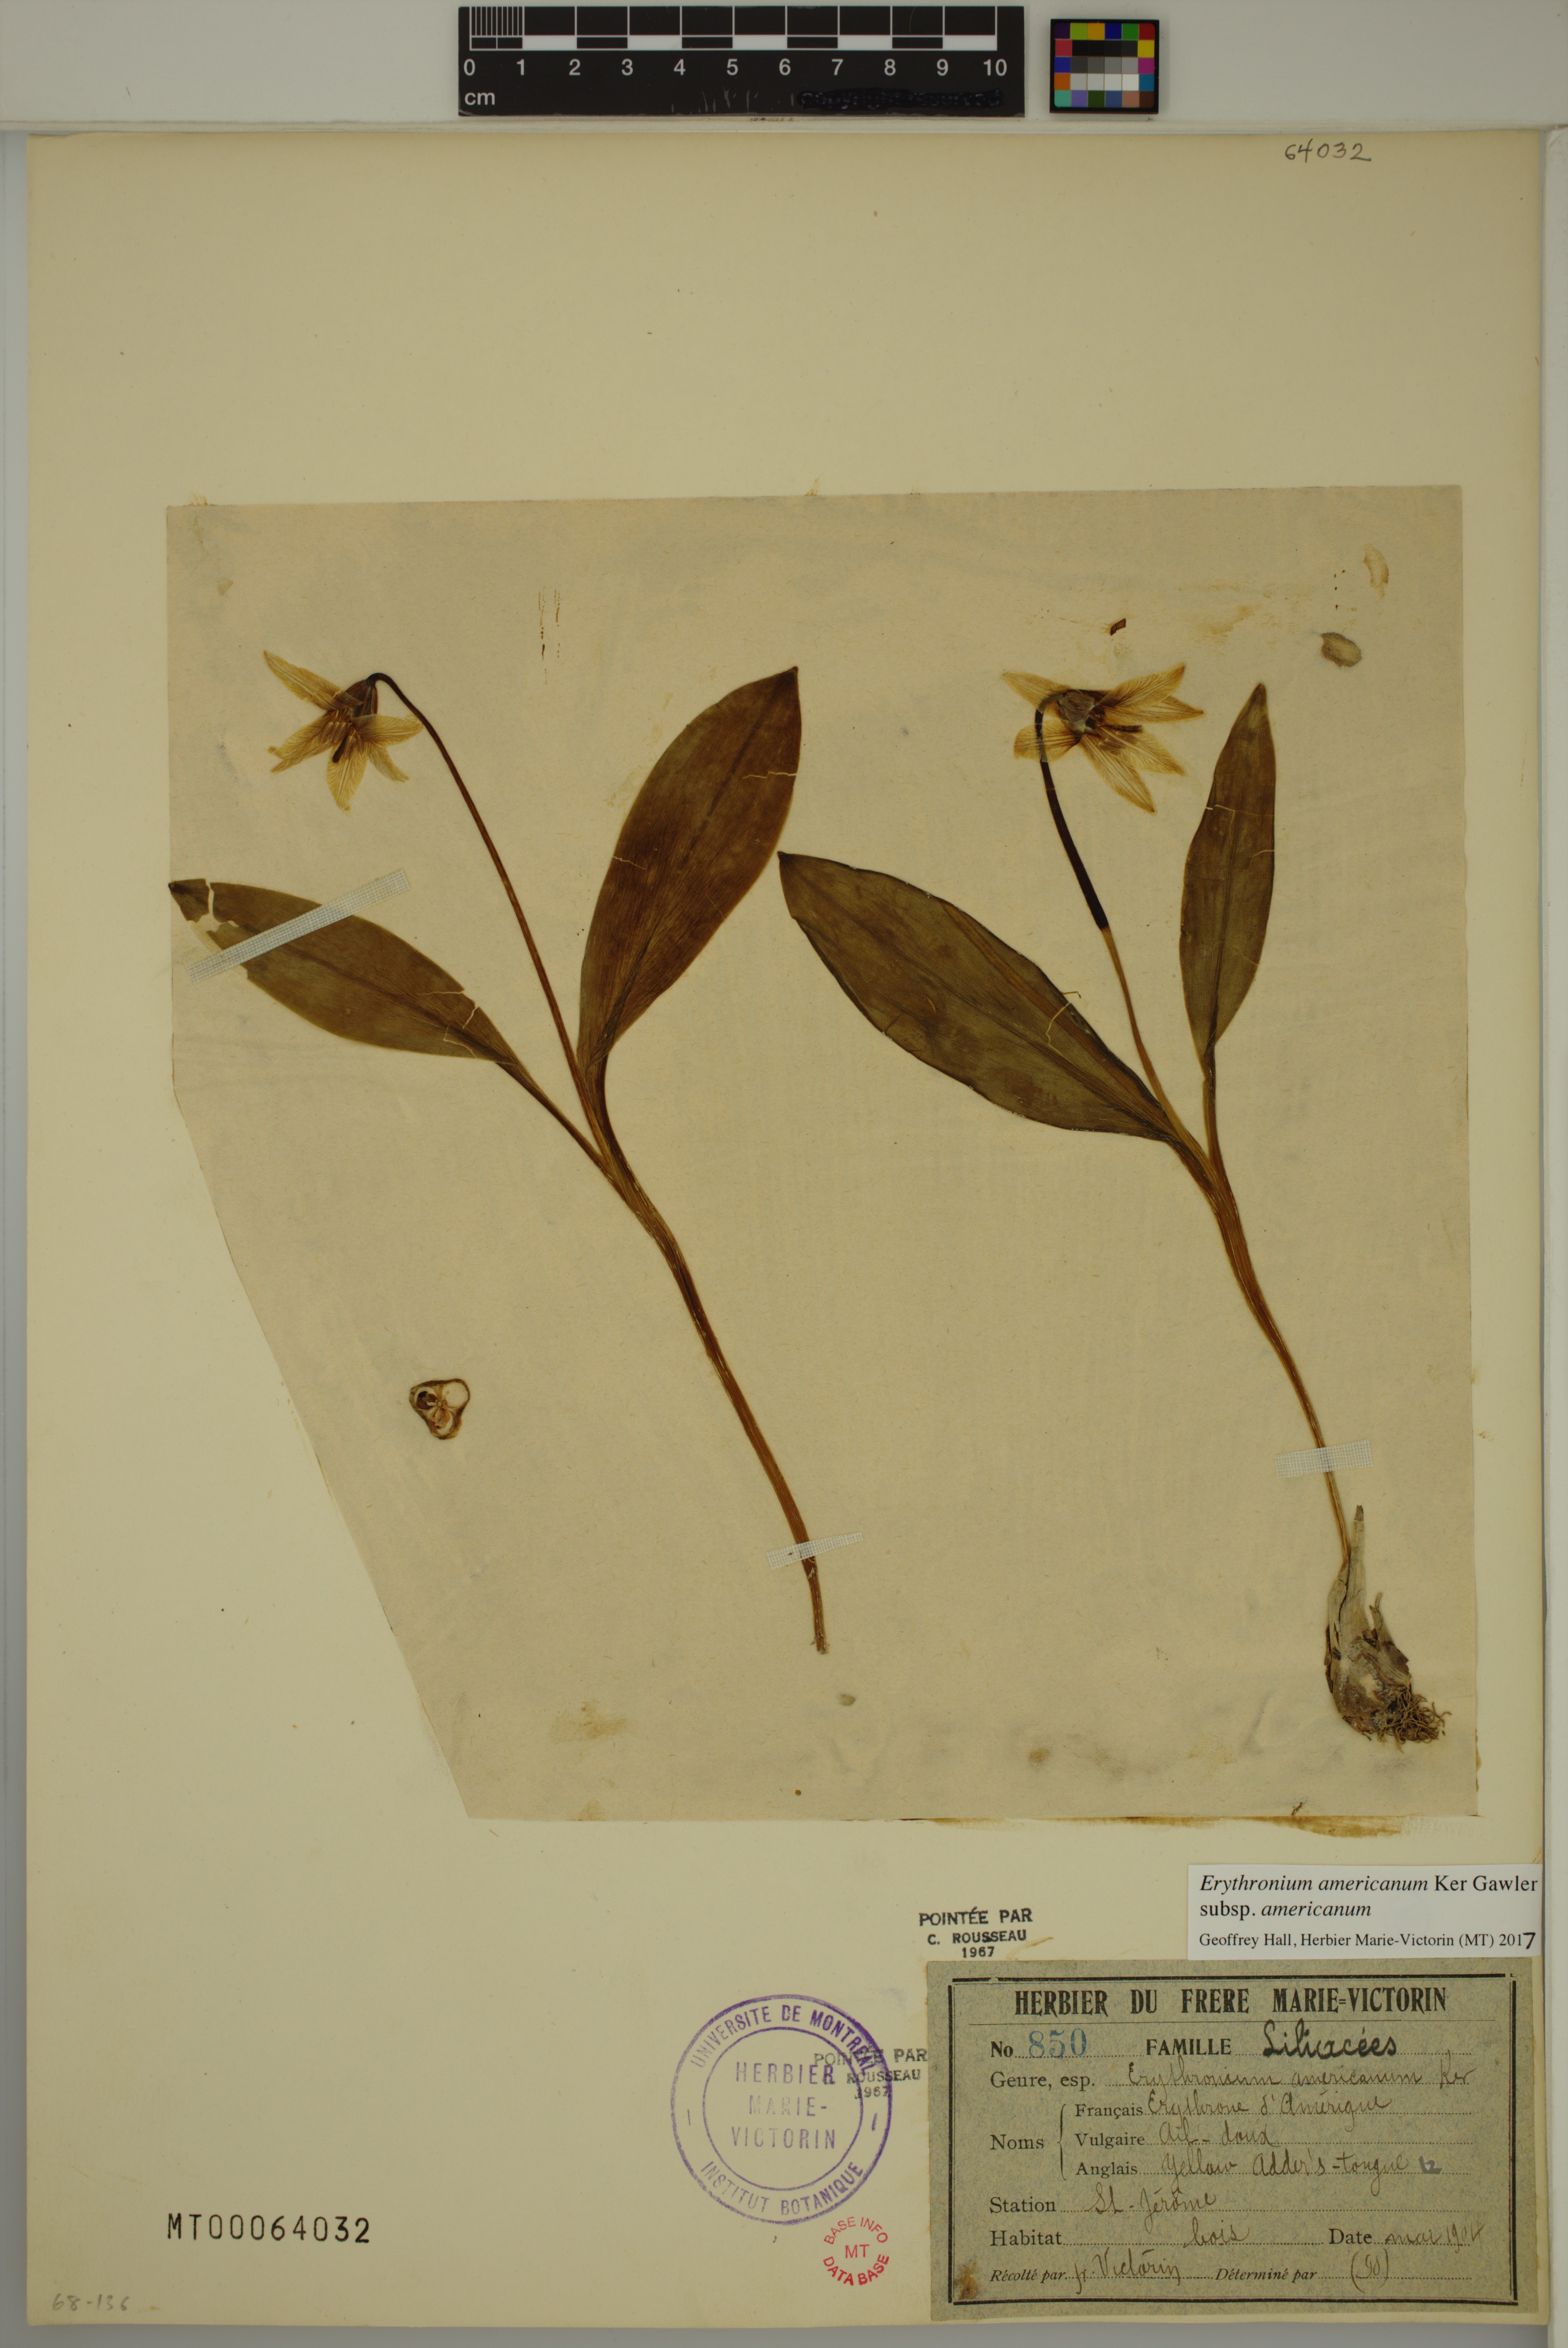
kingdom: Plantae
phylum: Tracheophyta
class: Liliopsida
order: Liliales
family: Liliaceae
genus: Erythronium
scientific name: Erythronium americanum
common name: Yellow adder's-tongue
